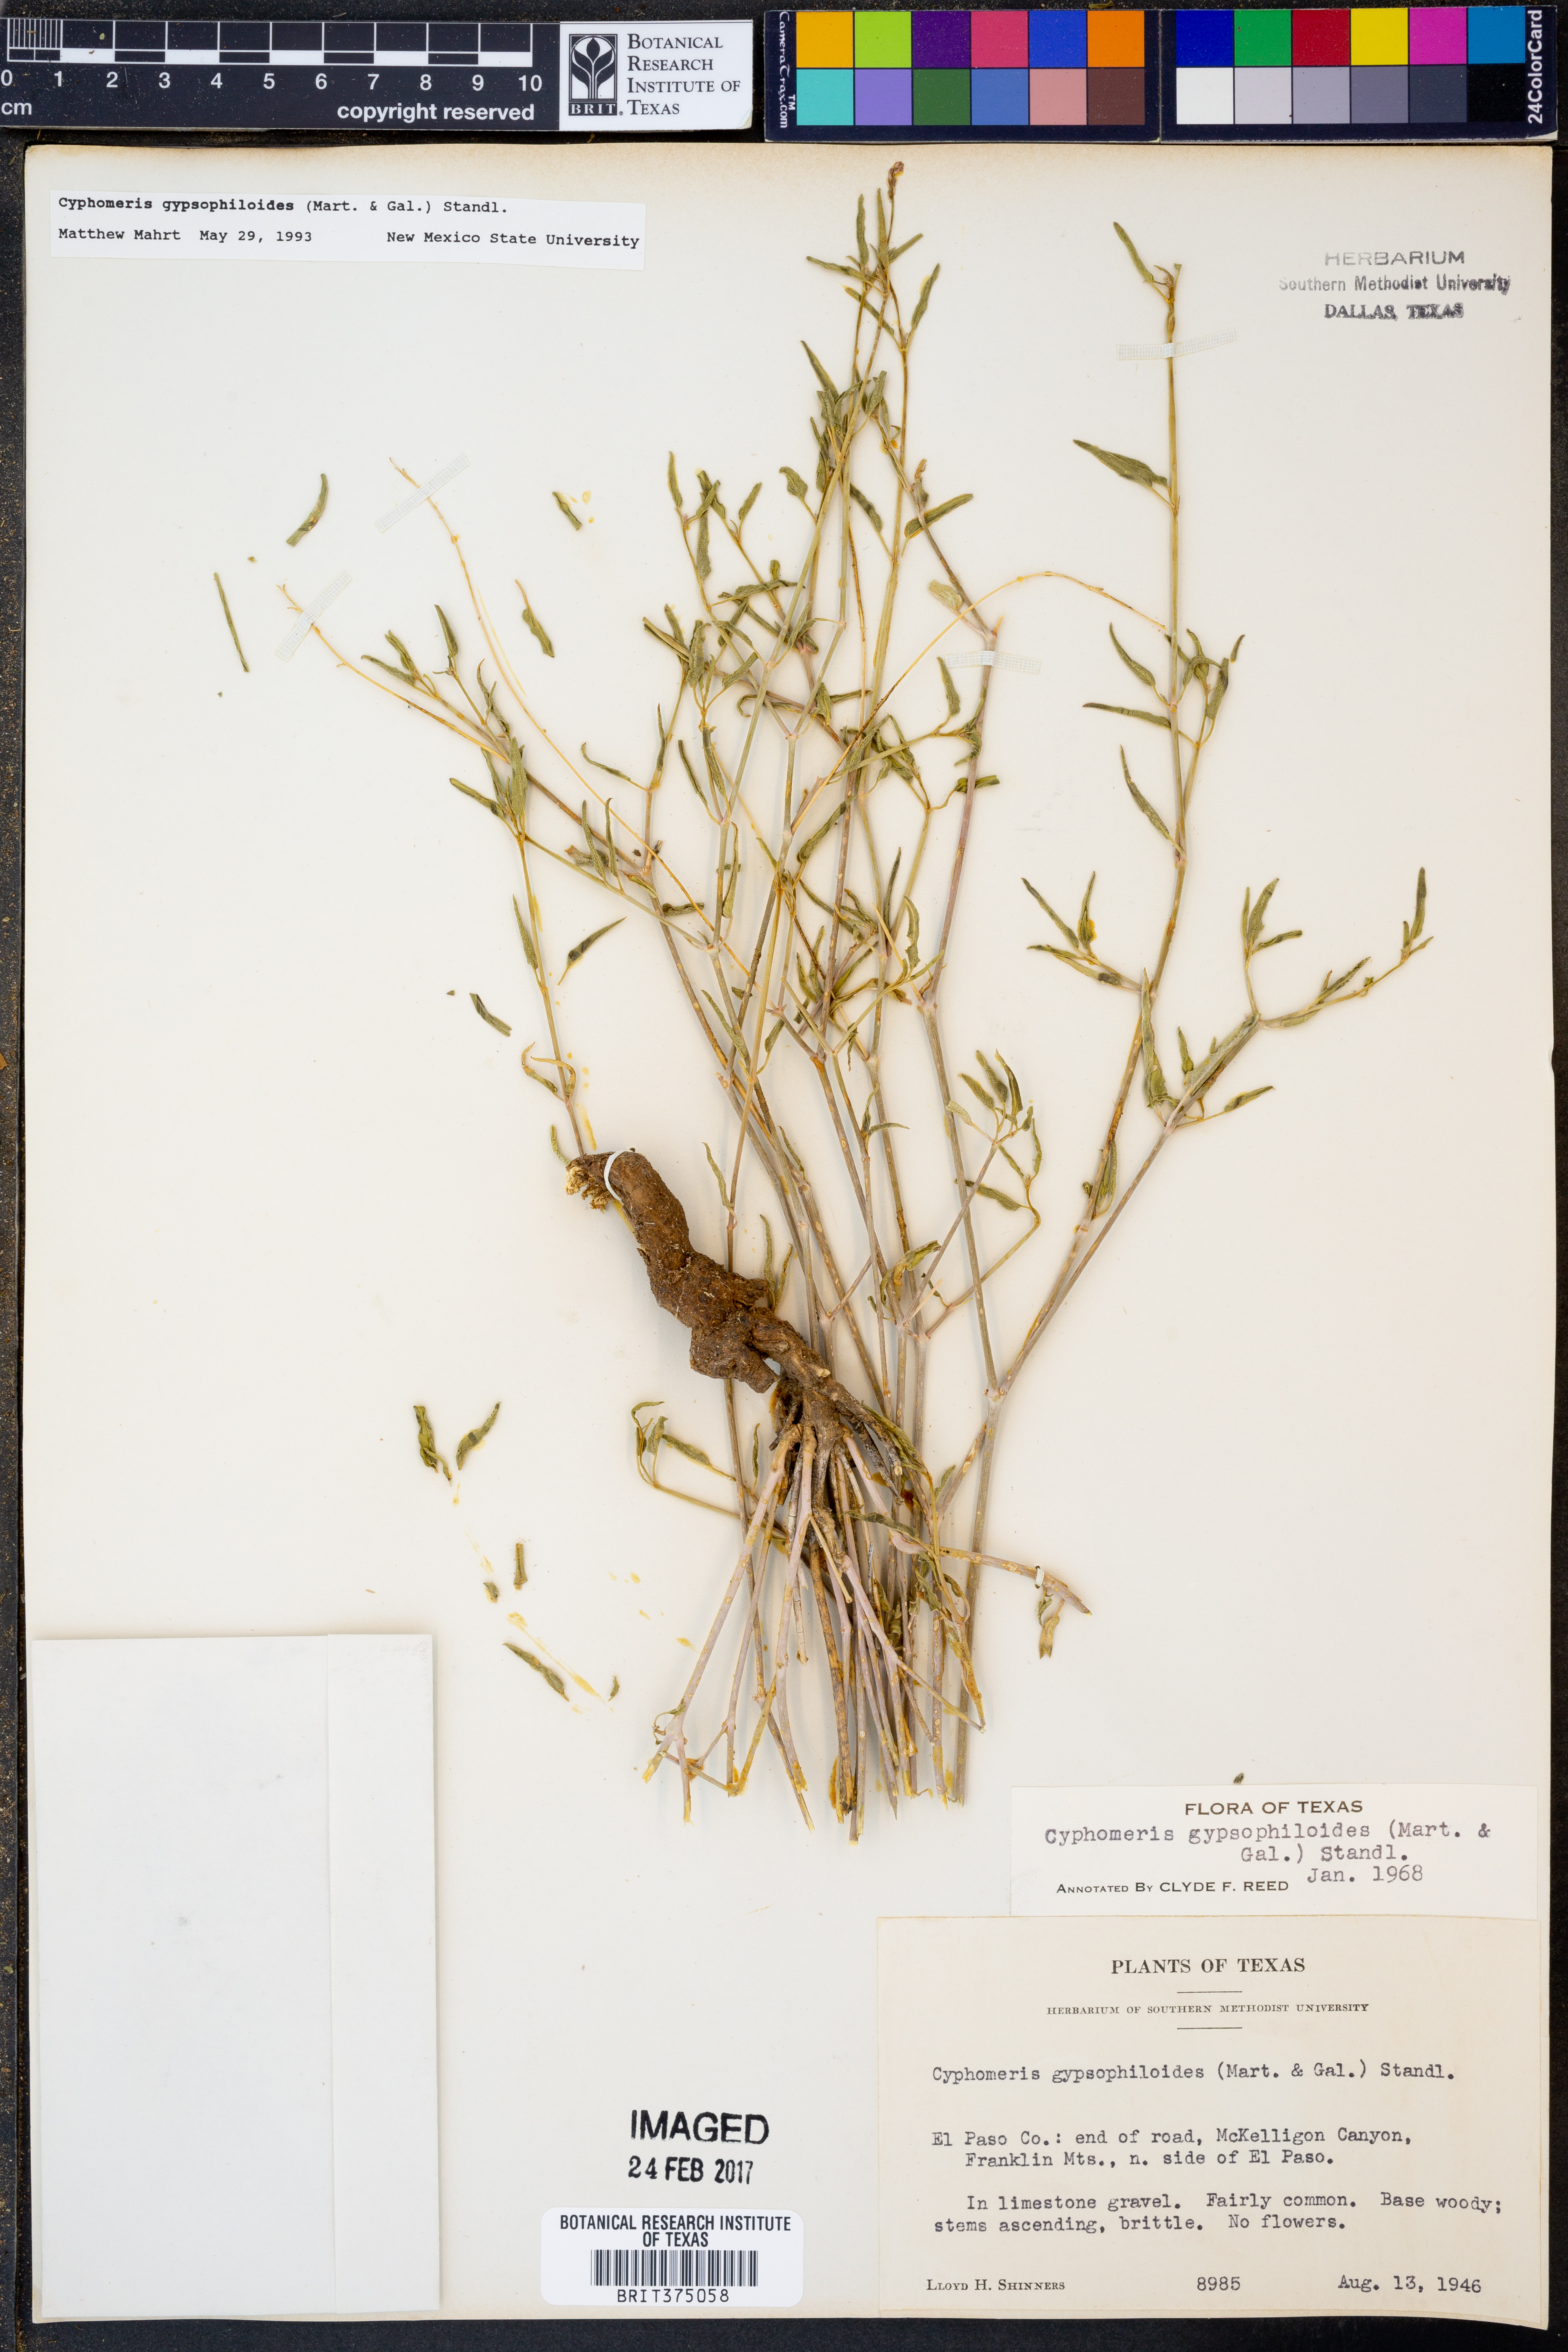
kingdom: Plantae
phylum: Tracheophyta
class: Magnoliopsida
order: Caryophyllales
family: Nyctaginaceae
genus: Cyphomeris
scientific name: Cyphomeris gypsophiloides
